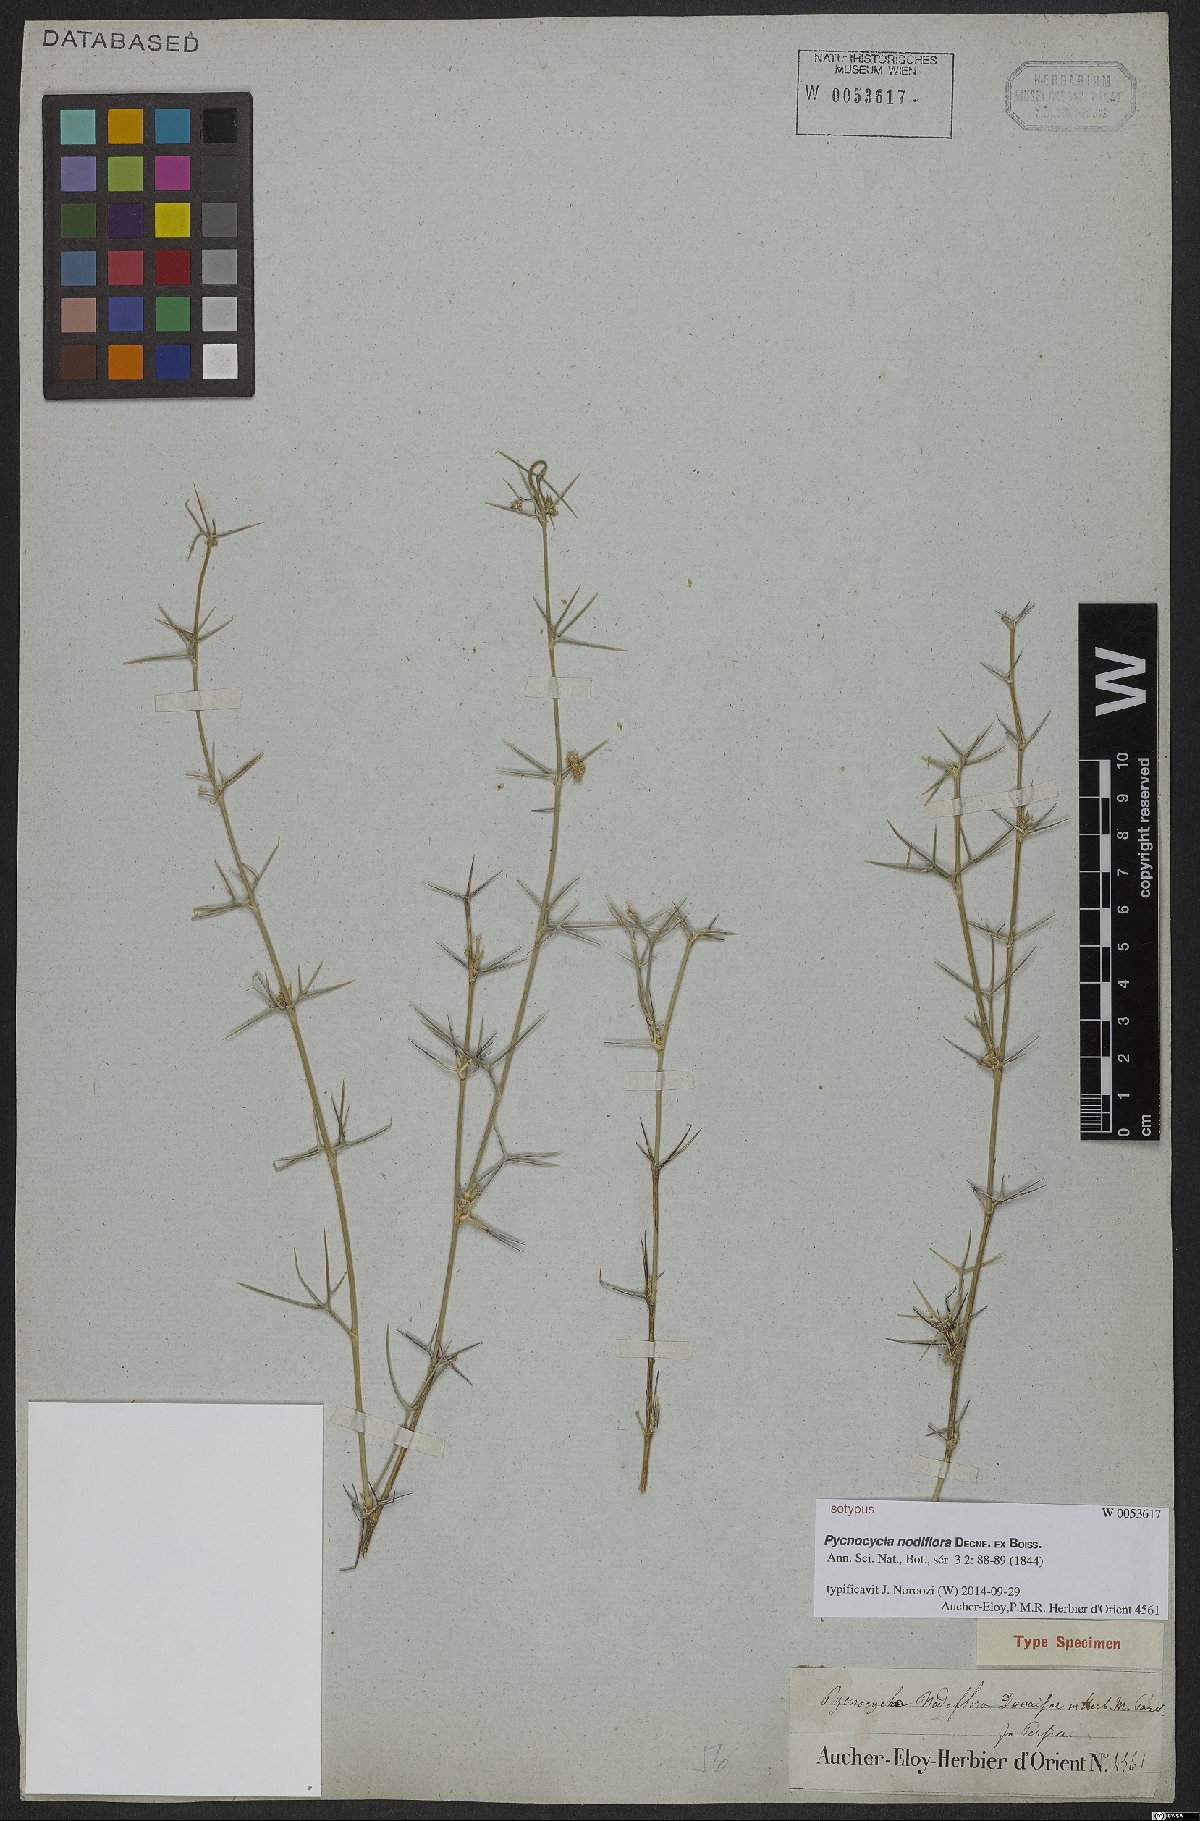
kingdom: Plantae
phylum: Tracheophyta
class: Magnoliopsida
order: Apiales
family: Apiaceae
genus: Pycnocycla
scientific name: Pycnocycla nodiflora
